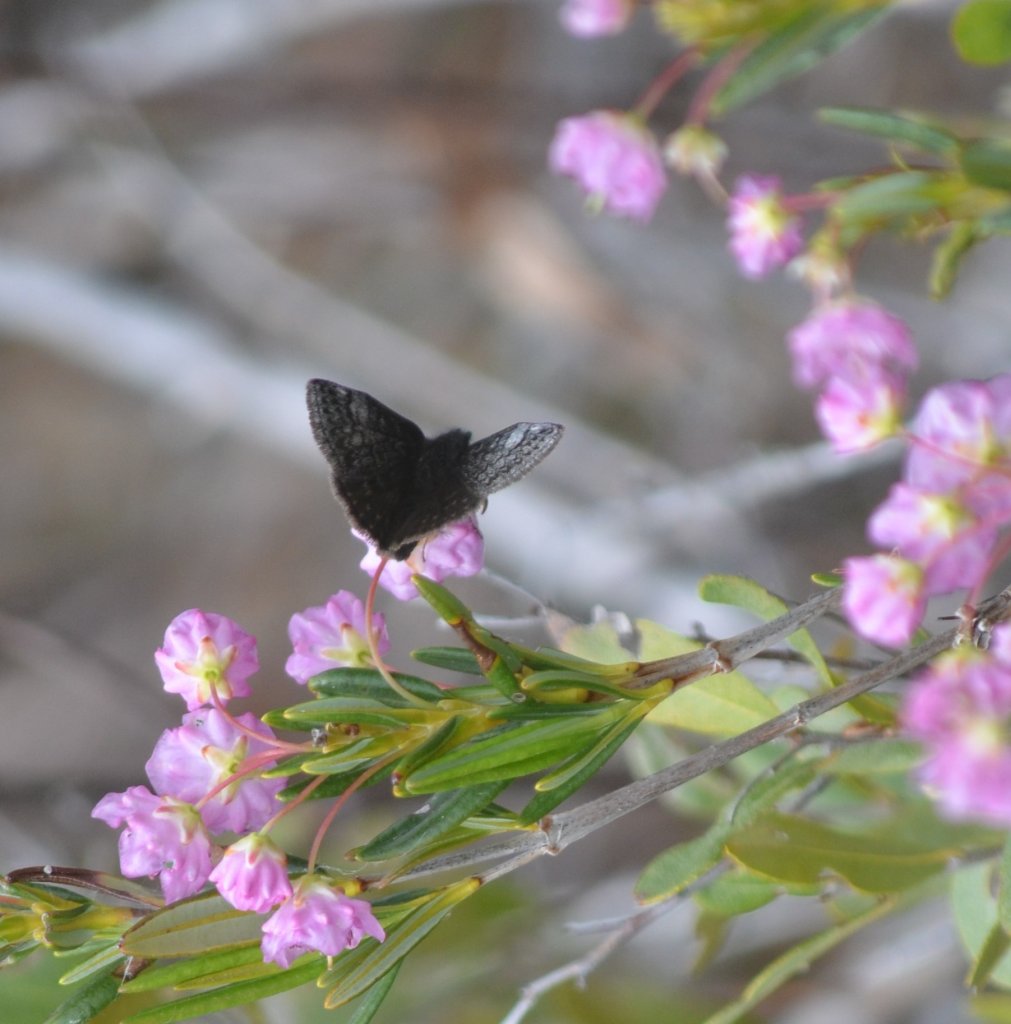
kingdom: Animalia
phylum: Arthropoda
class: Insecta
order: Lepidoptera
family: Hesperiidae
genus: Erynnis
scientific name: Erynnis icelus
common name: Dreamy Duskywing
